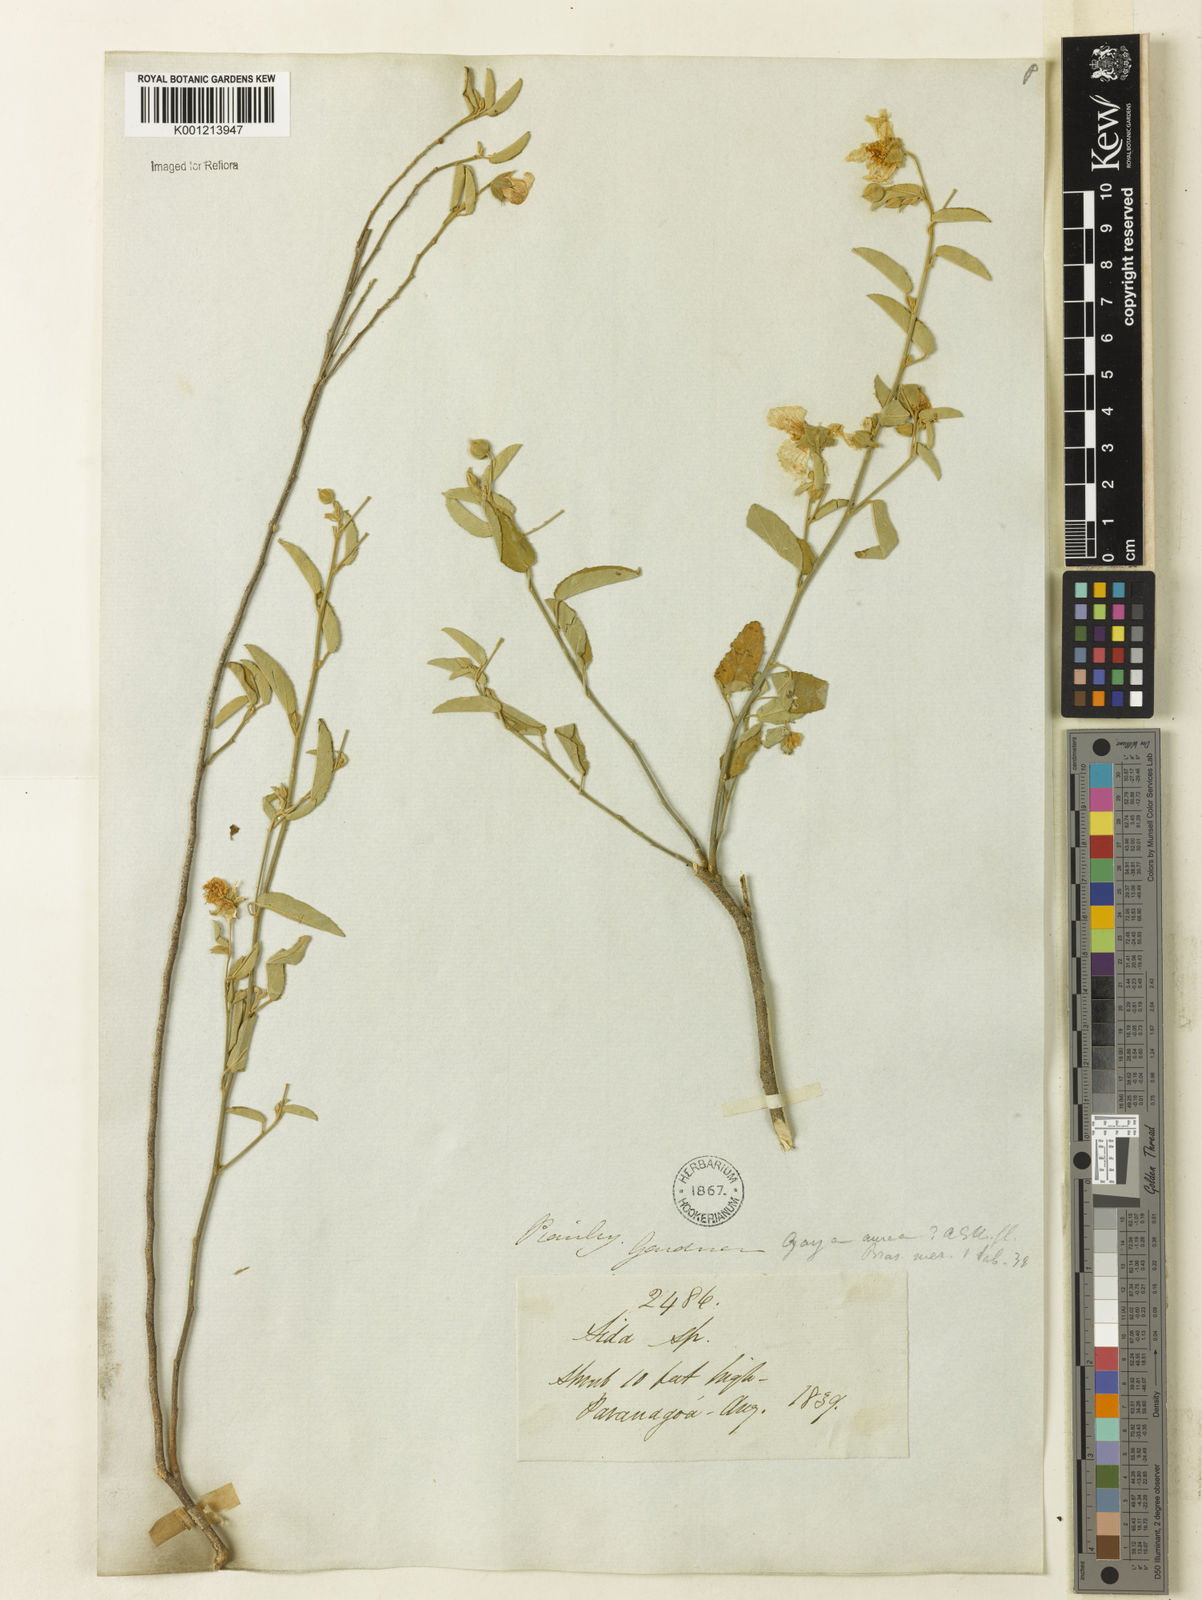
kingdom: Plantae
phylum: Tracheophyta
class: Magnoliopsida
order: Malvales
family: Malvaceae
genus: Gaya
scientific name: Gaya aurea
